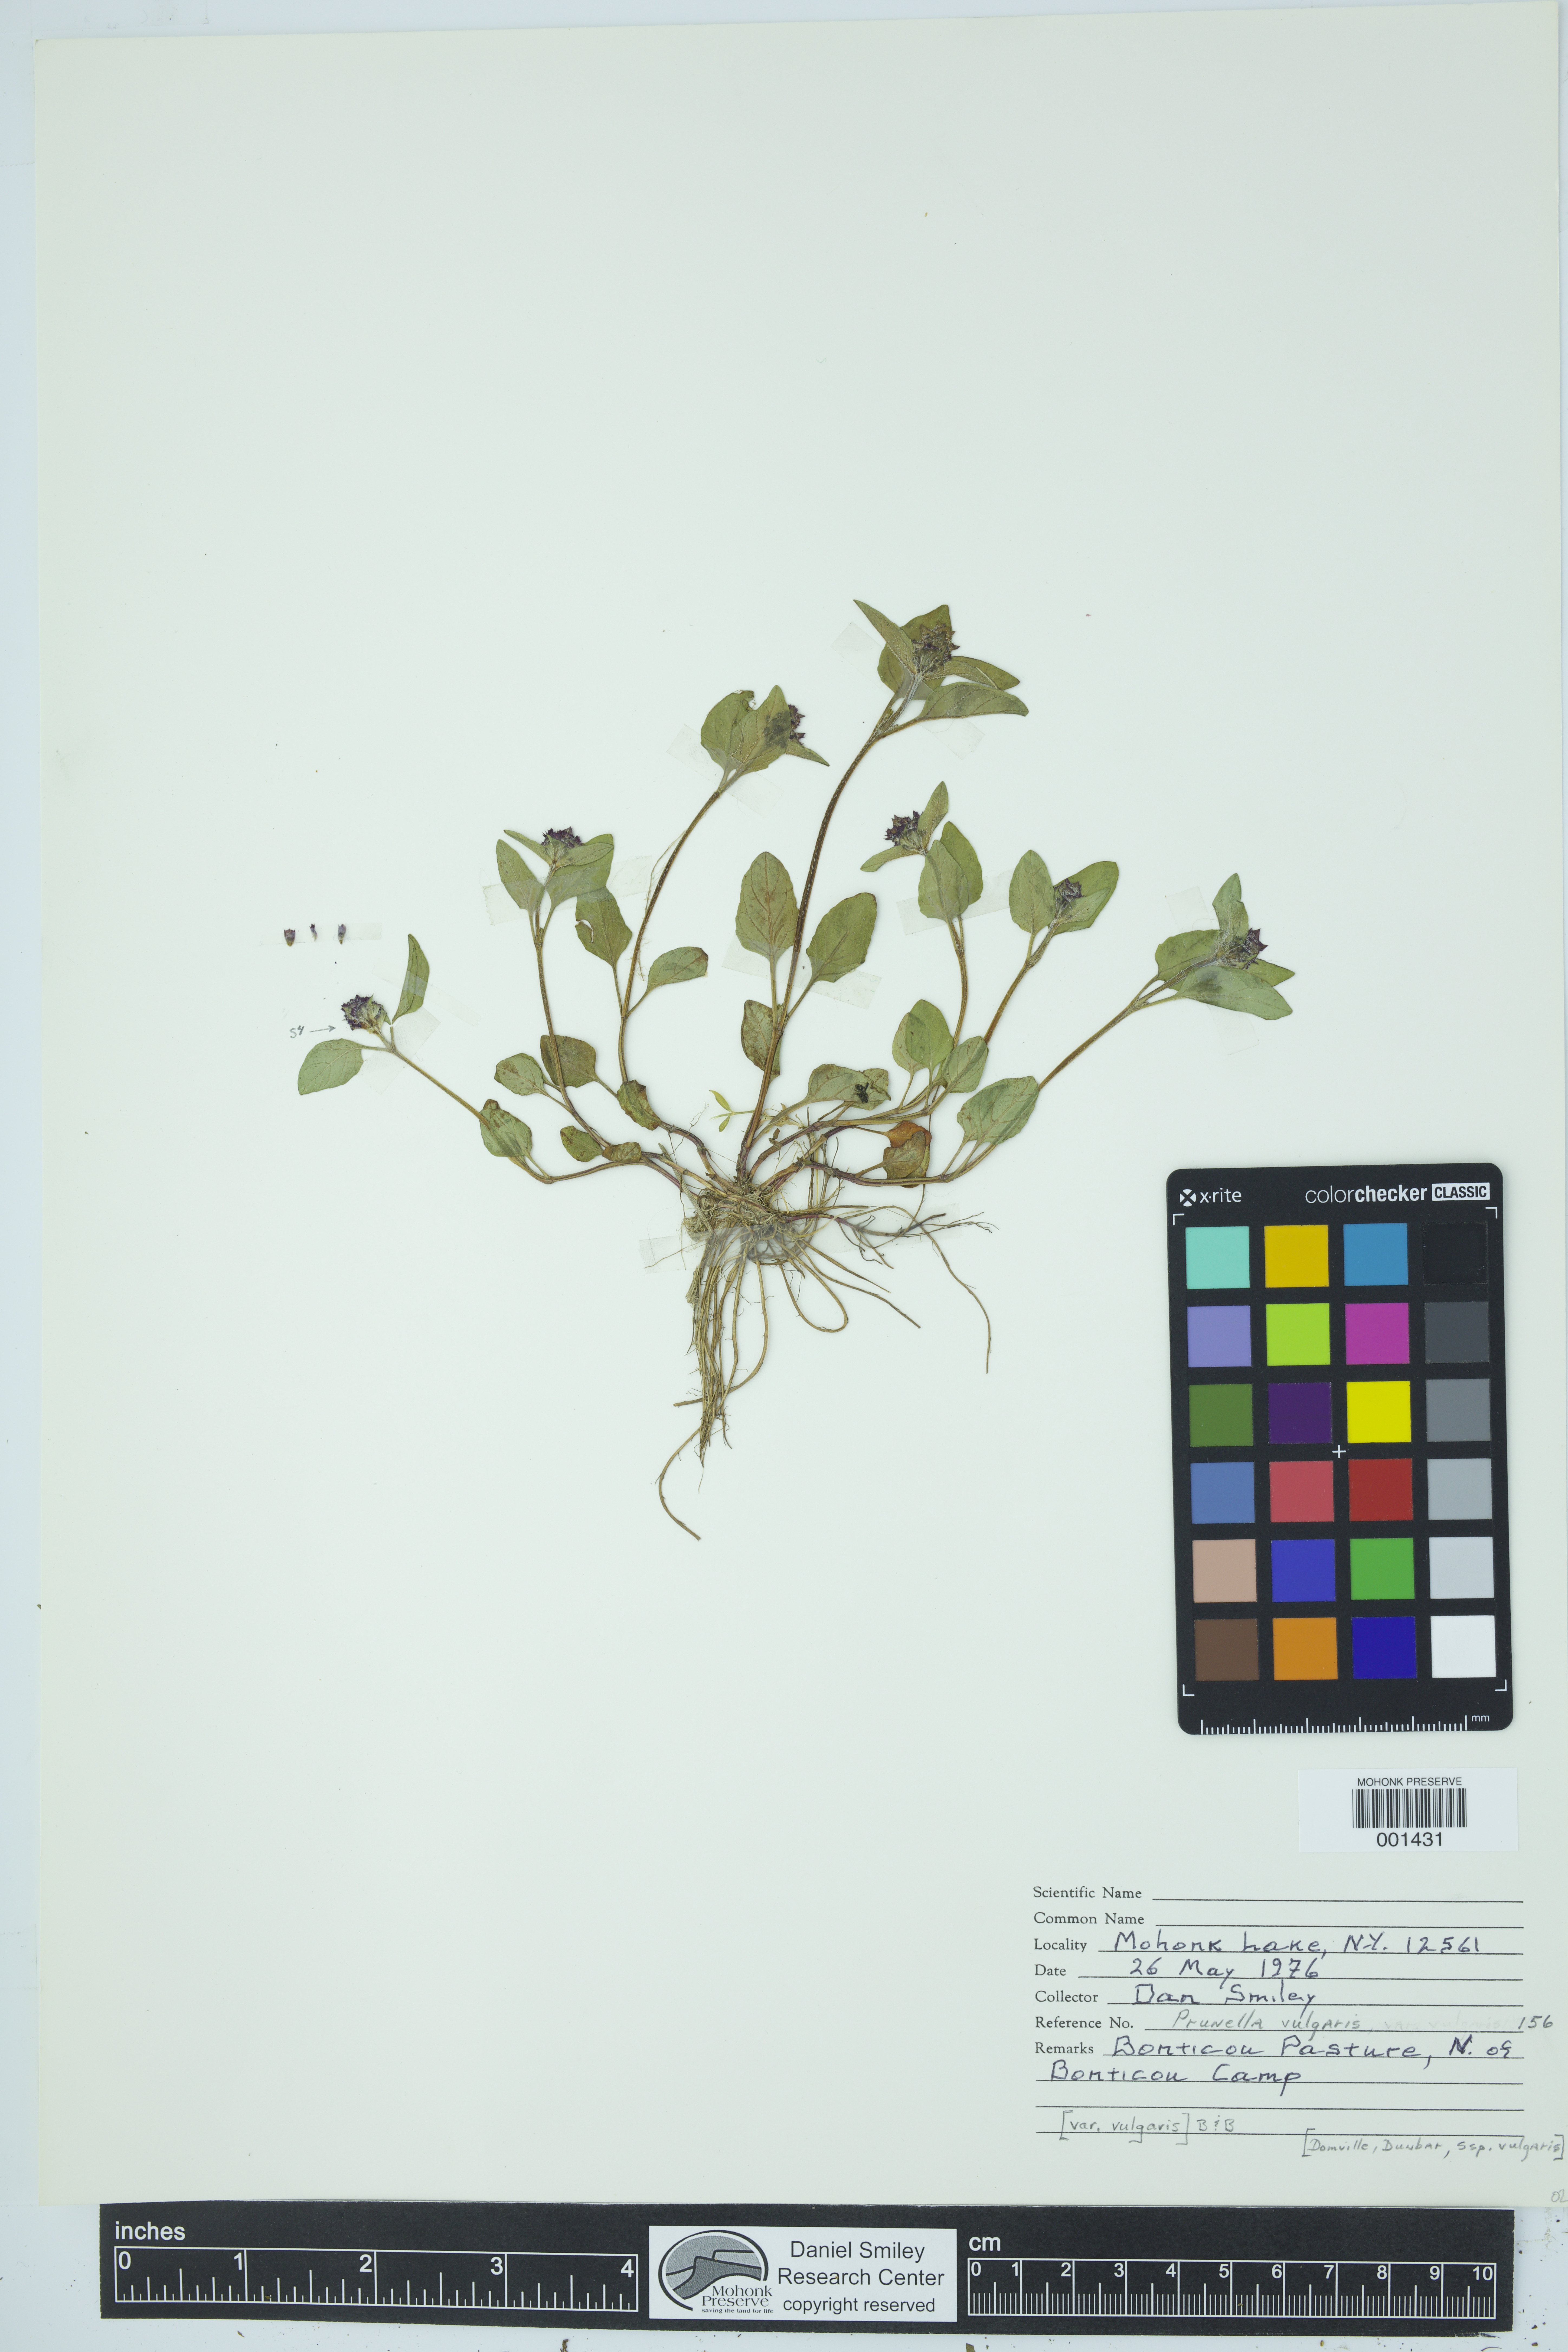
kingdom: Plantae
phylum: Tracheophyta
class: Magnoliopsida
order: Lamiales
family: Lamiaceae
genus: Prunella
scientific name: Prunella vulgaris
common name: Heal-all
